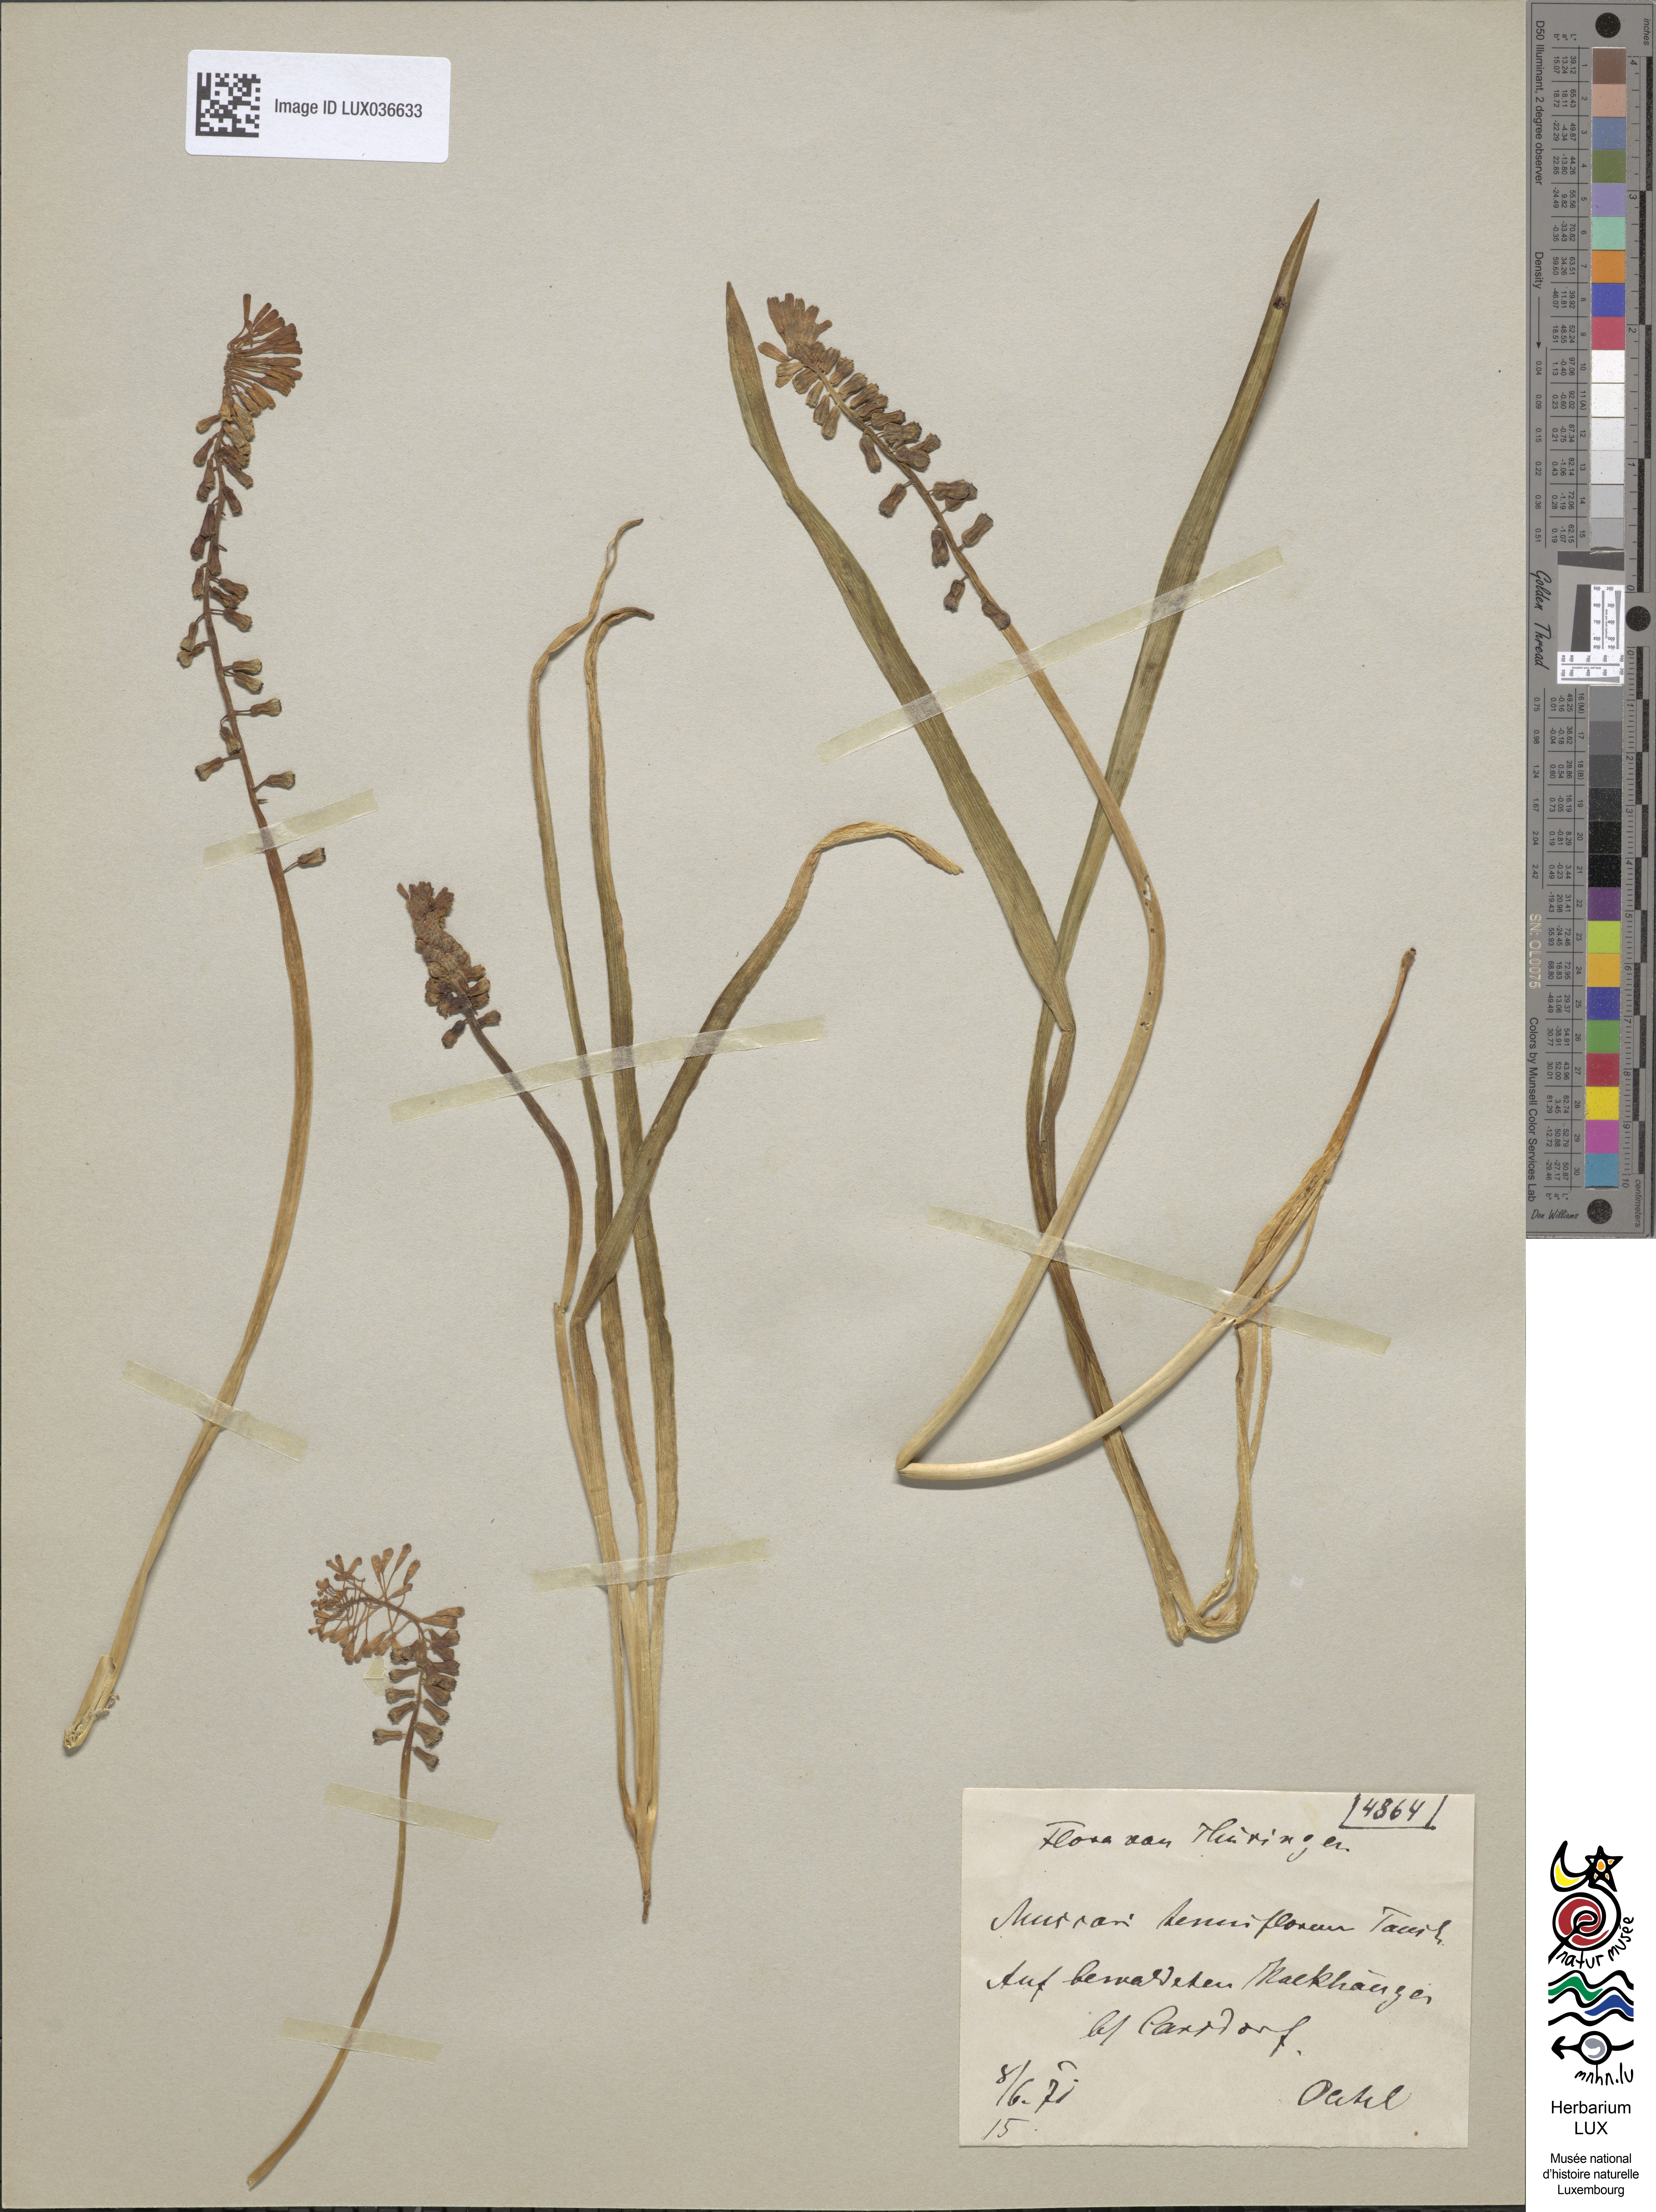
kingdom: Plantae
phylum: Tracheophyta
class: Liliopsida
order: Asparagales
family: Asparagaceae
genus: Muscari
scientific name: Muscari tenuiflorum
